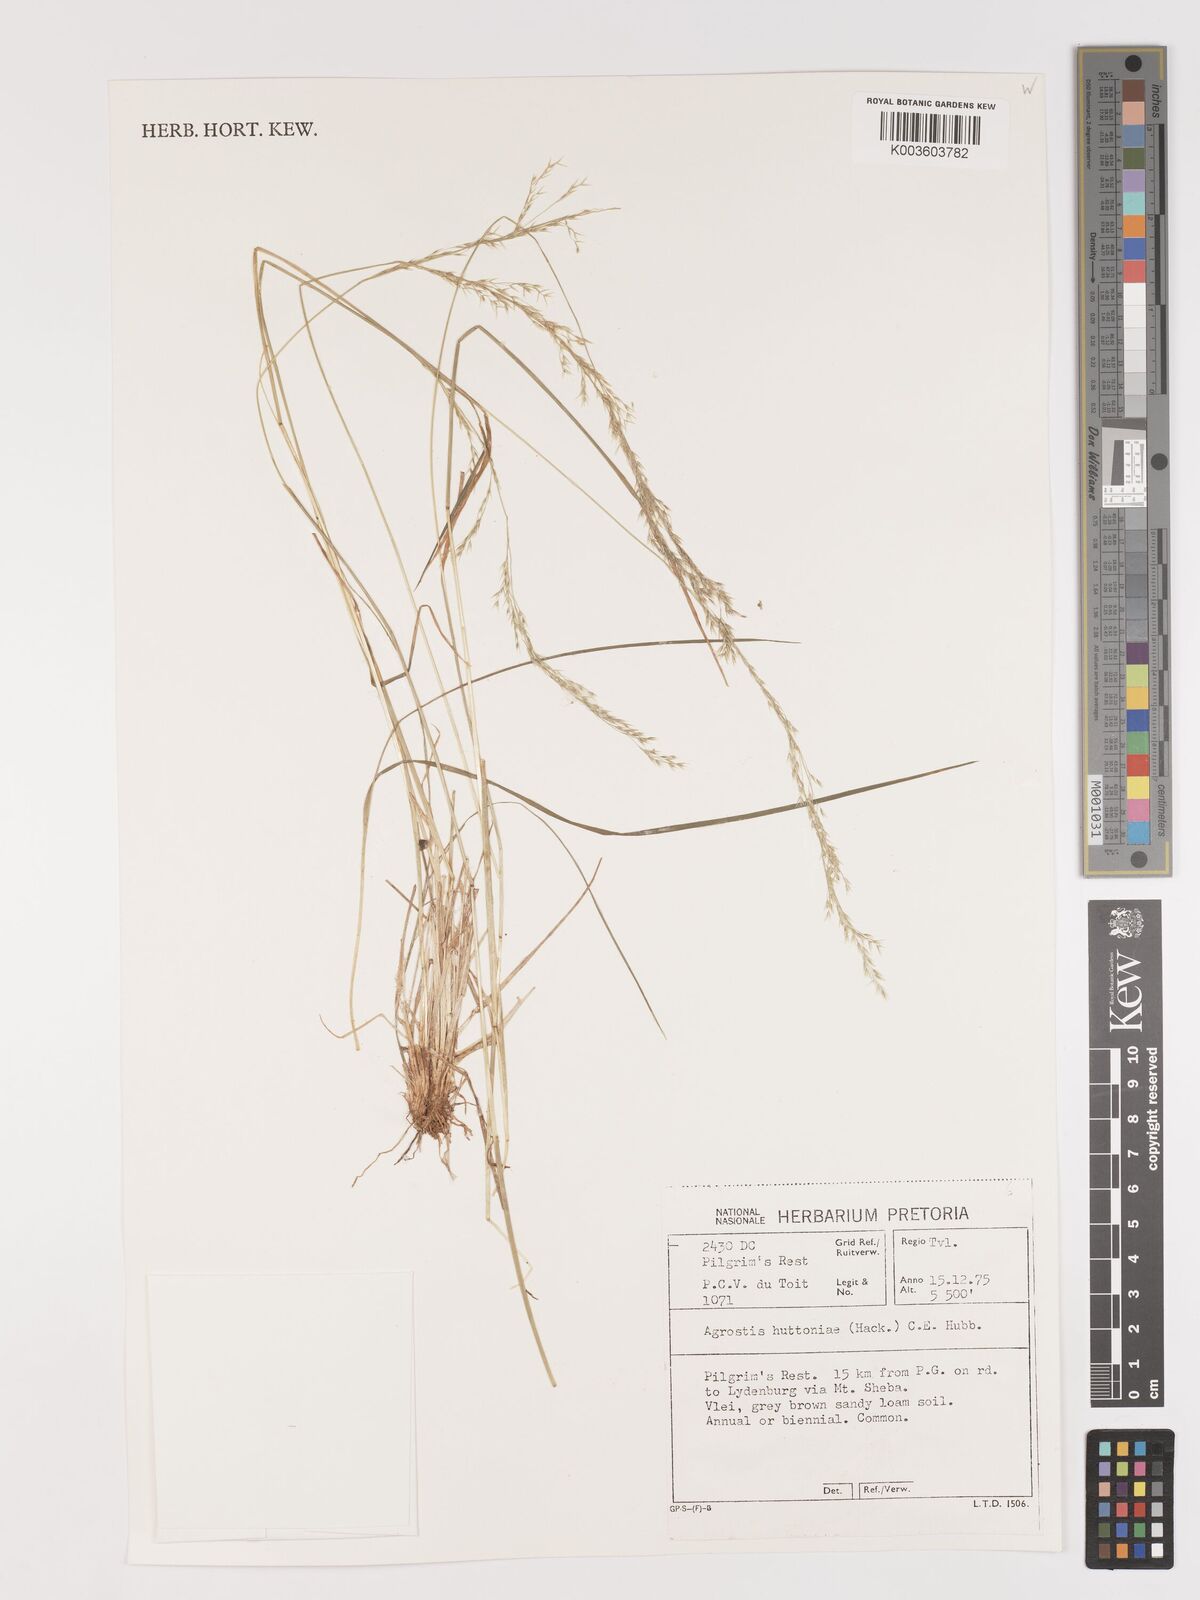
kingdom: Plantae
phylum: Tracheophyta
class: Liliopsida
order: Poales
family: Poaceae
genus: Lachnagrostis
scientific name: Lachnagrostis lachnantha
